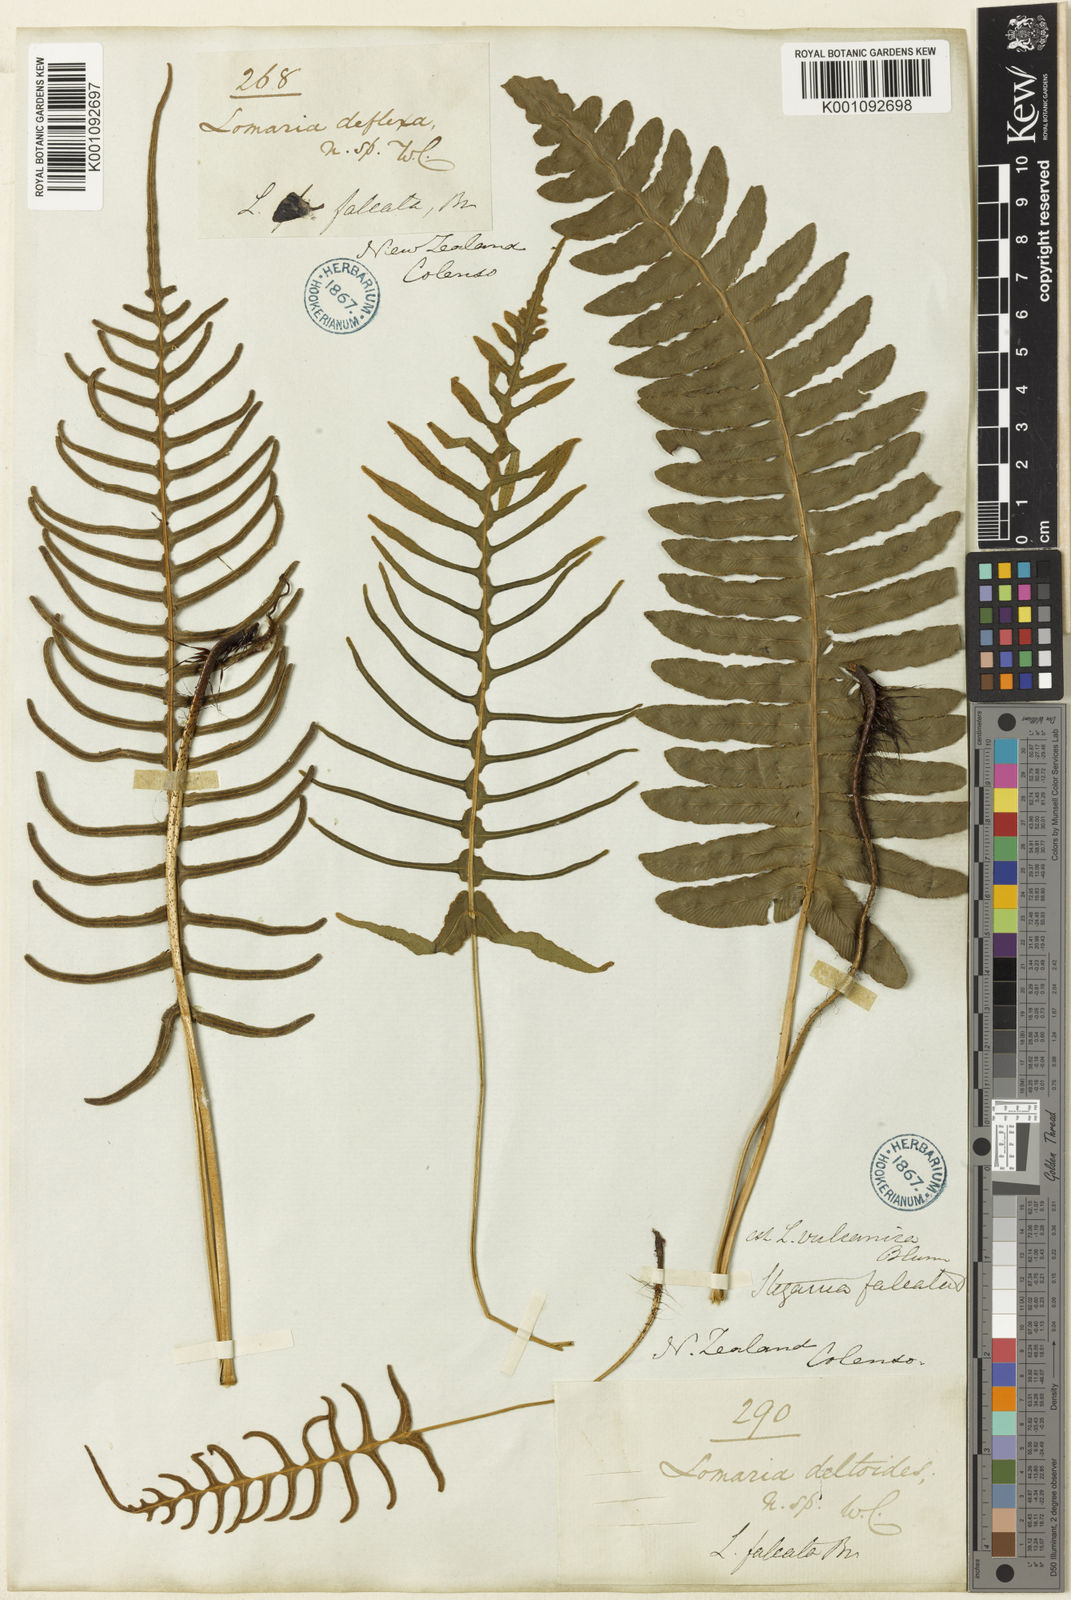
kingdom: Plantae
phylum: Tracheophyta
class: Polypodiopsida
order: Polypodiales
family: Blechnaceae
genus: Cranfillia
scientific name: Cranfillia vulcanica
